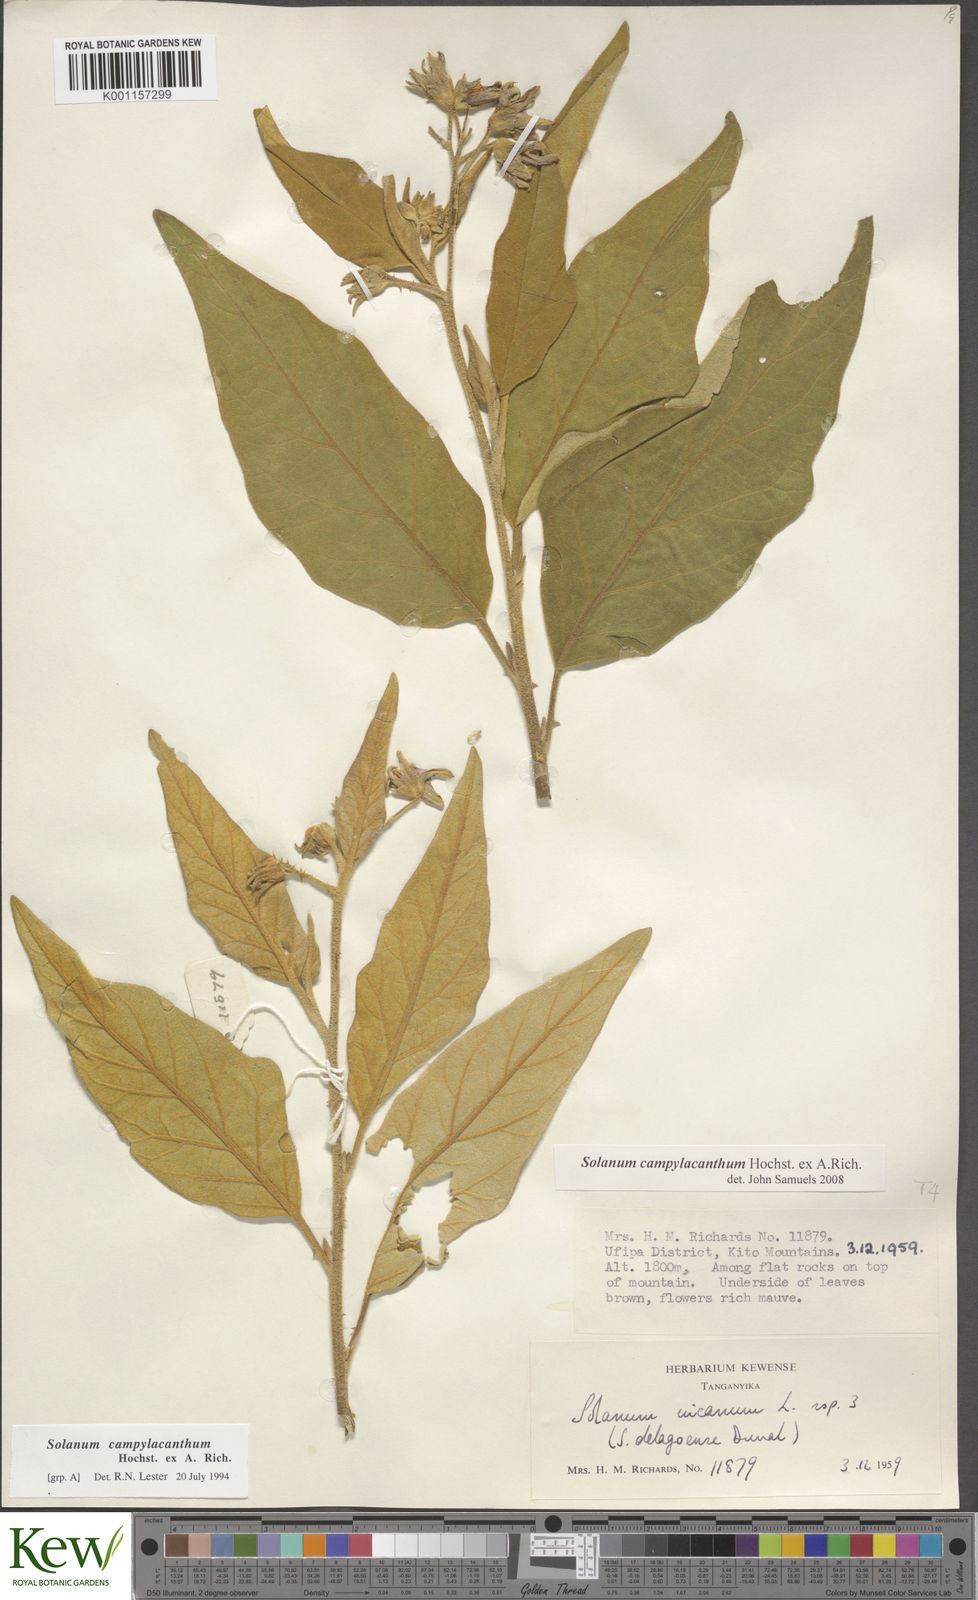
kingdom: Plantae
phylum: Tracheophyta
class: Magnoliopsida
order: Solanales
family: Solanaceae
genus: Solanum
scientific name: Solanum campylacanthum
